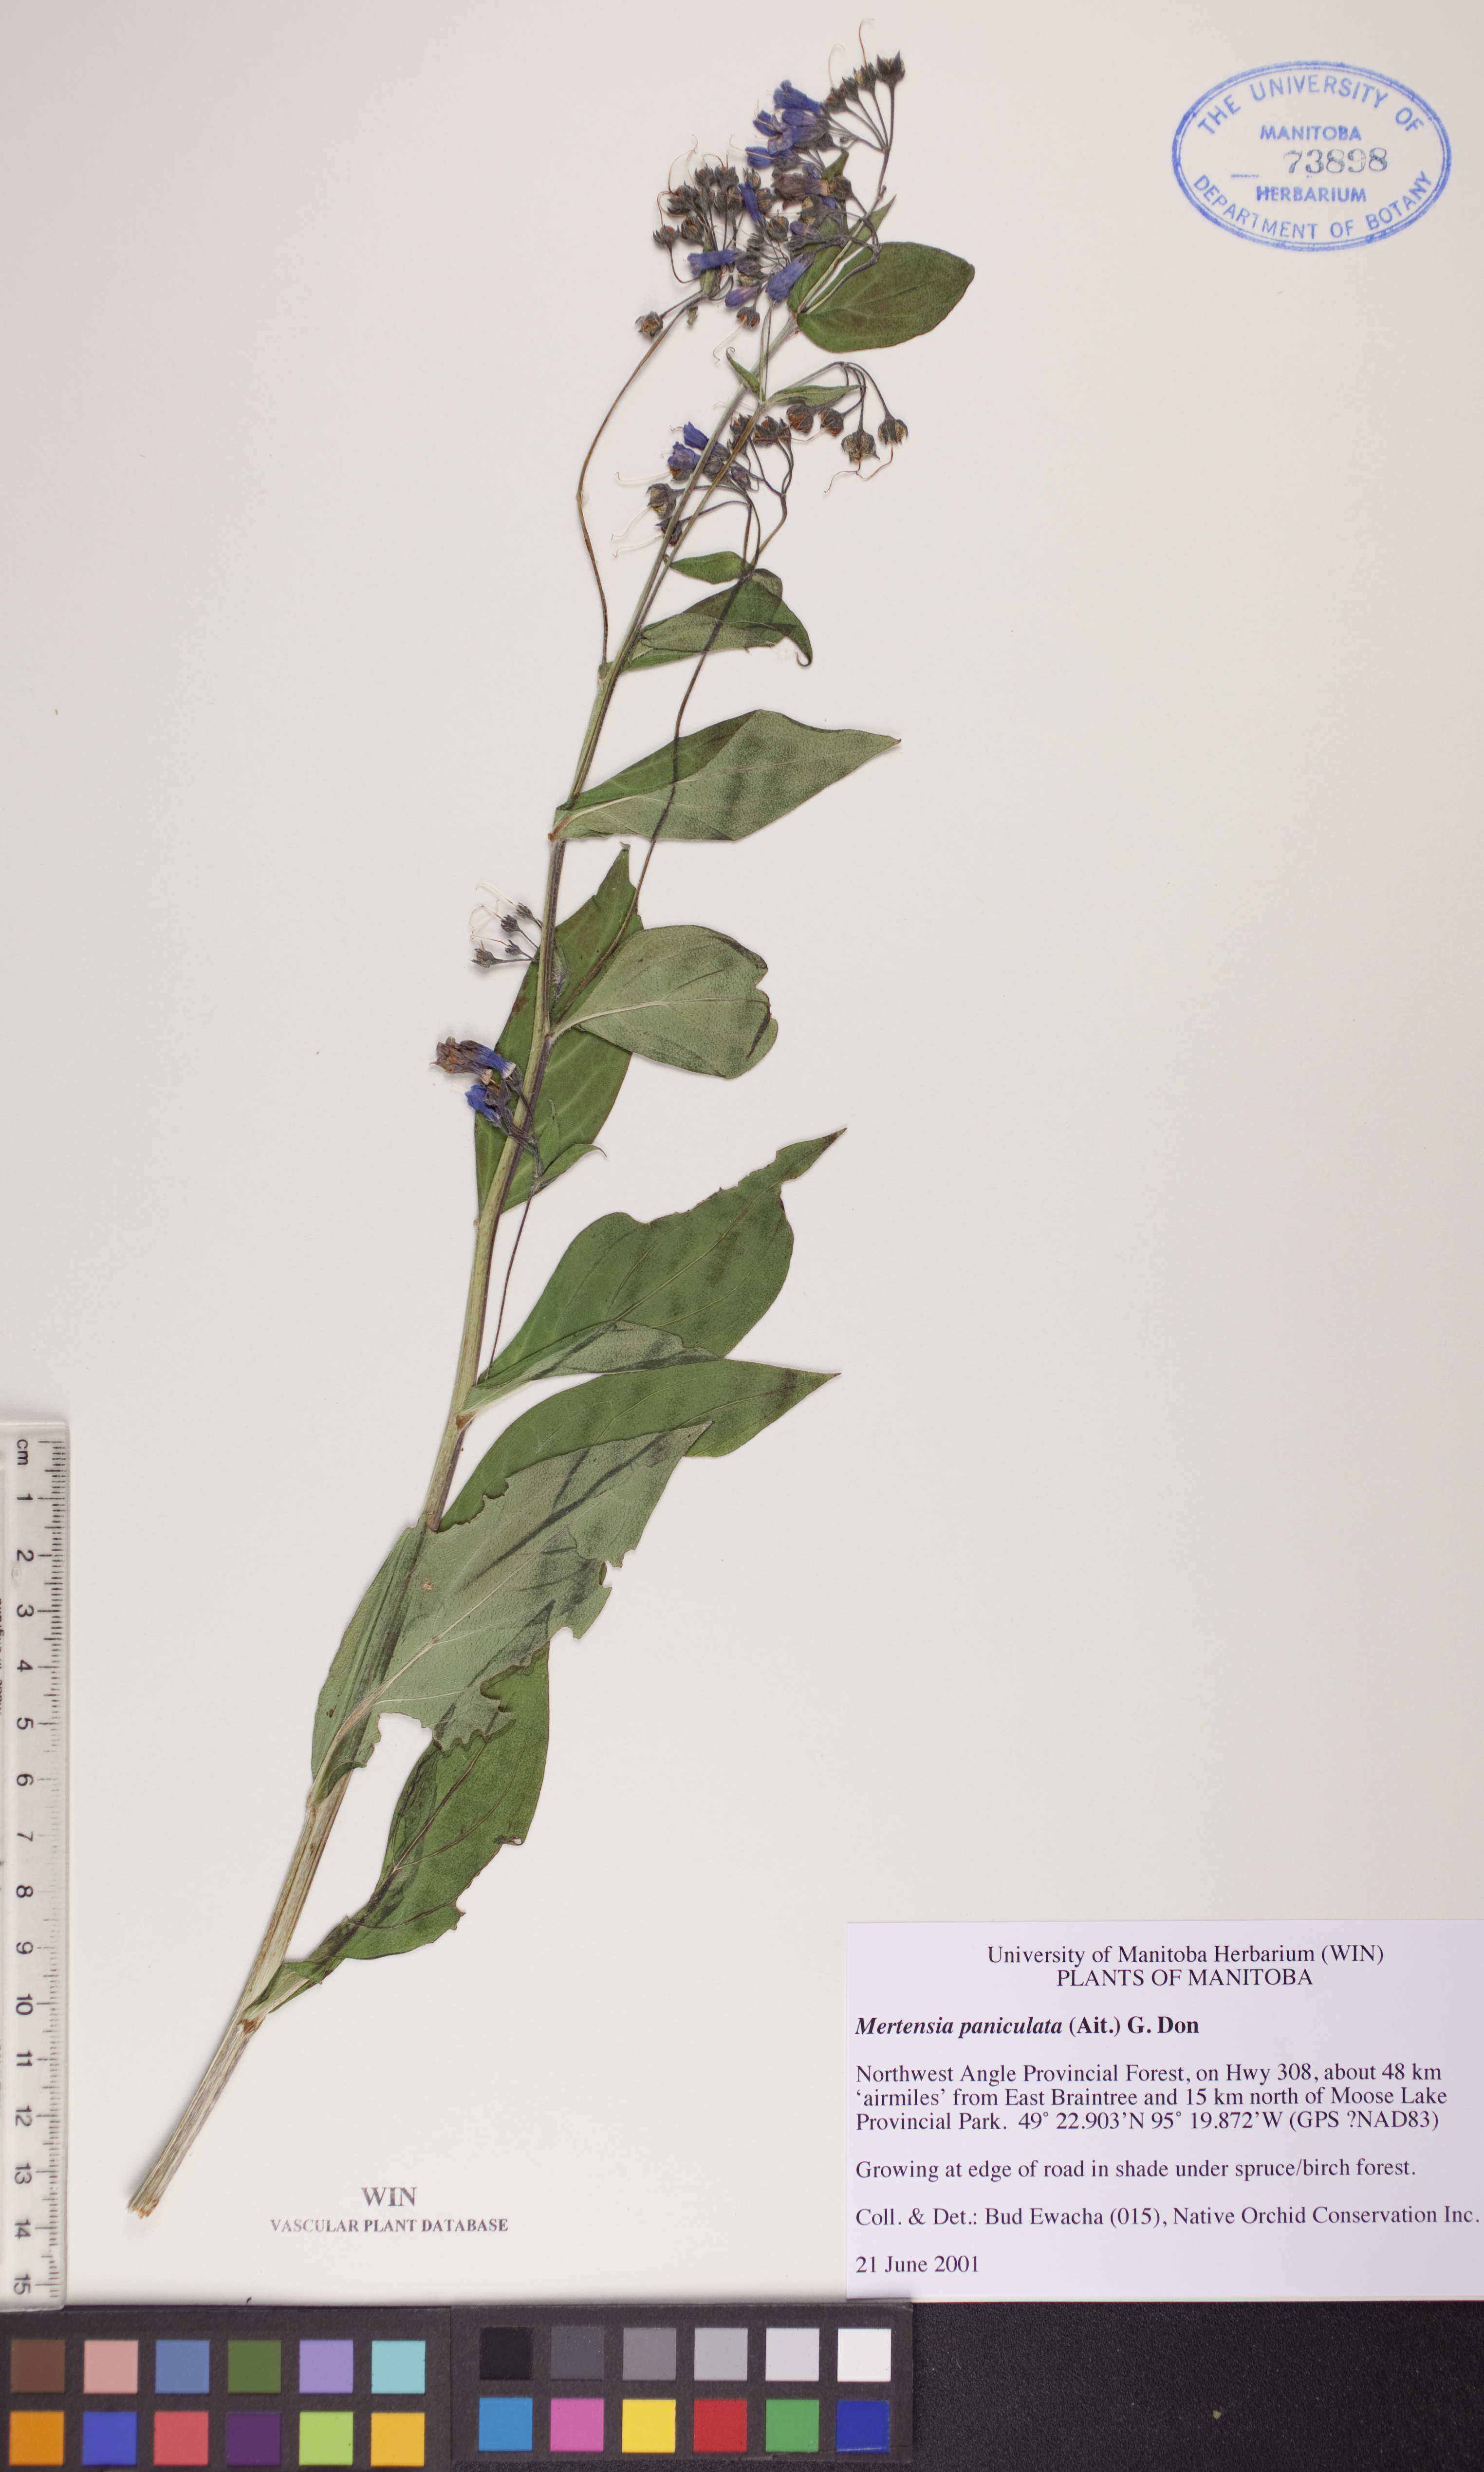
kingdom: Plantae
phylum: Tracheophyta
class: Magnoliopsida
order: Boraginales
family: Boraginaceae
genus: Mertensia
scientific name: Mertensia paniculata
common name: Panicled bluebells
